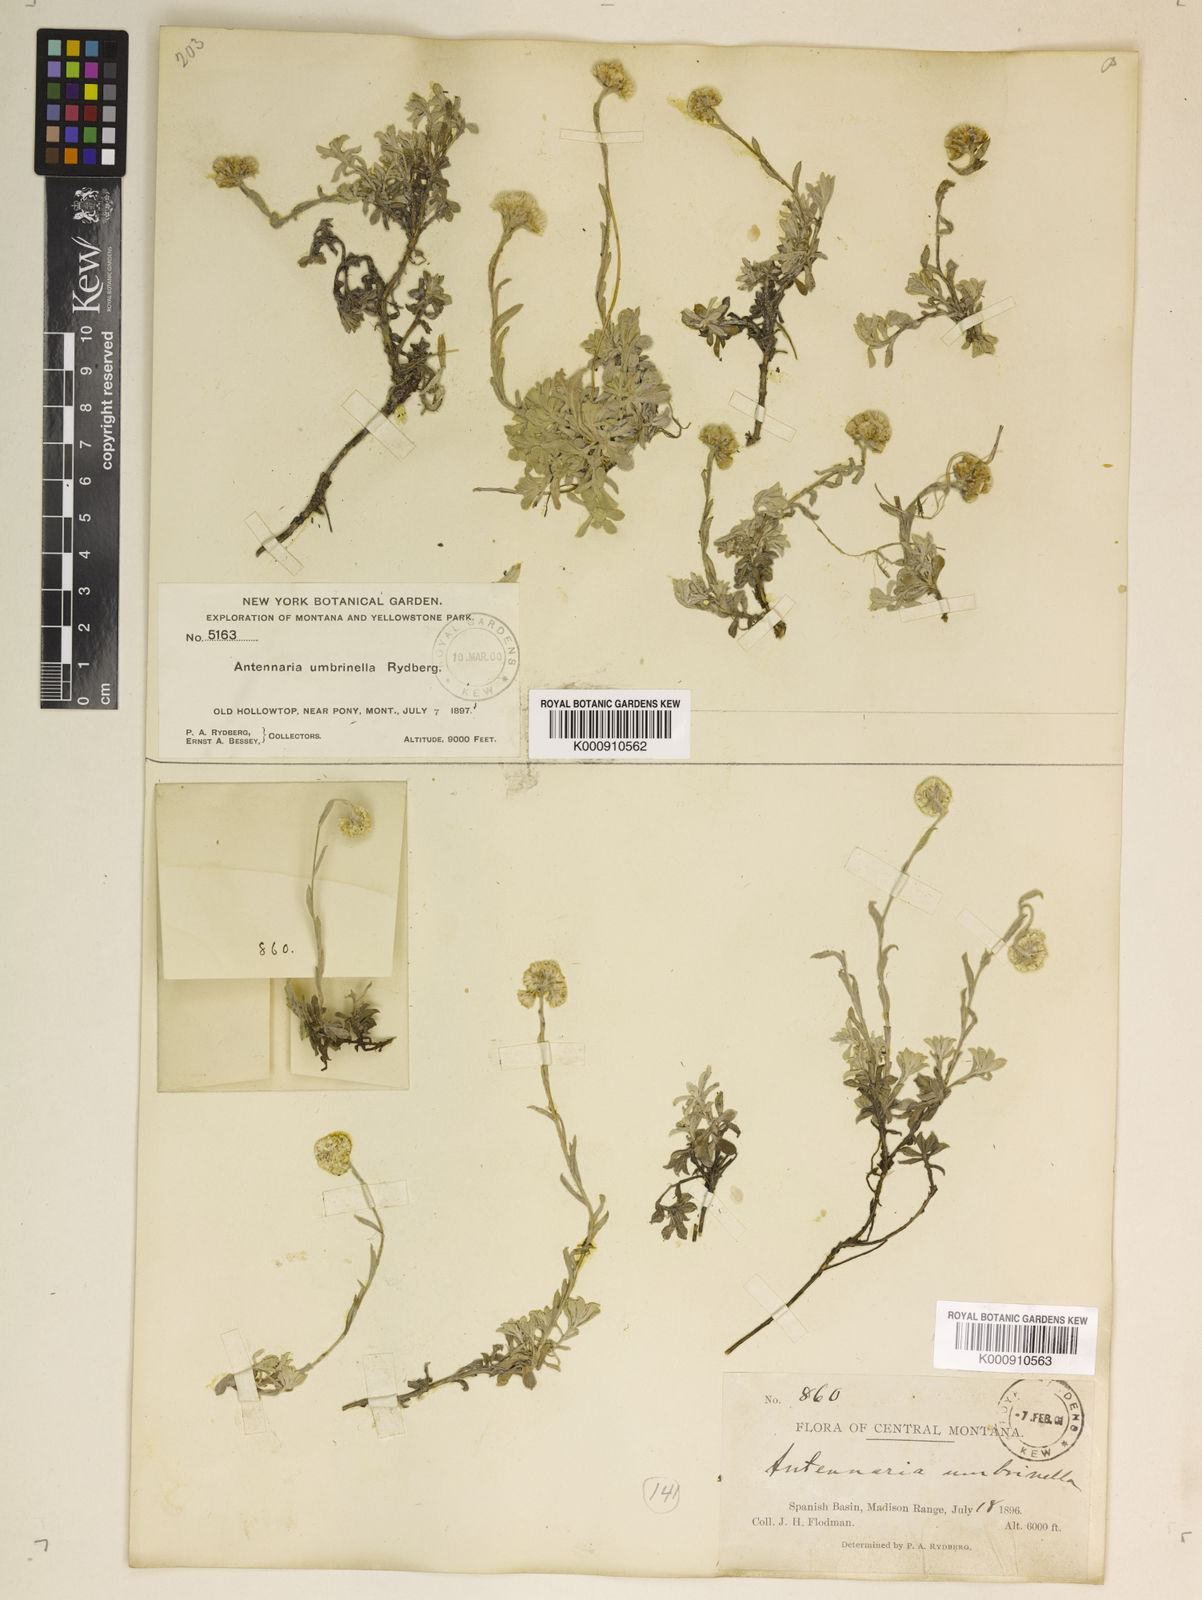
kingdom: Plantae
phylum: Tracheophyta
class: Magnoliopsida
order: Asterales
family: Asteraceae
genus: Antennaria
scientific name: Antennaria umbrinella
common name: Brown pussytoes
